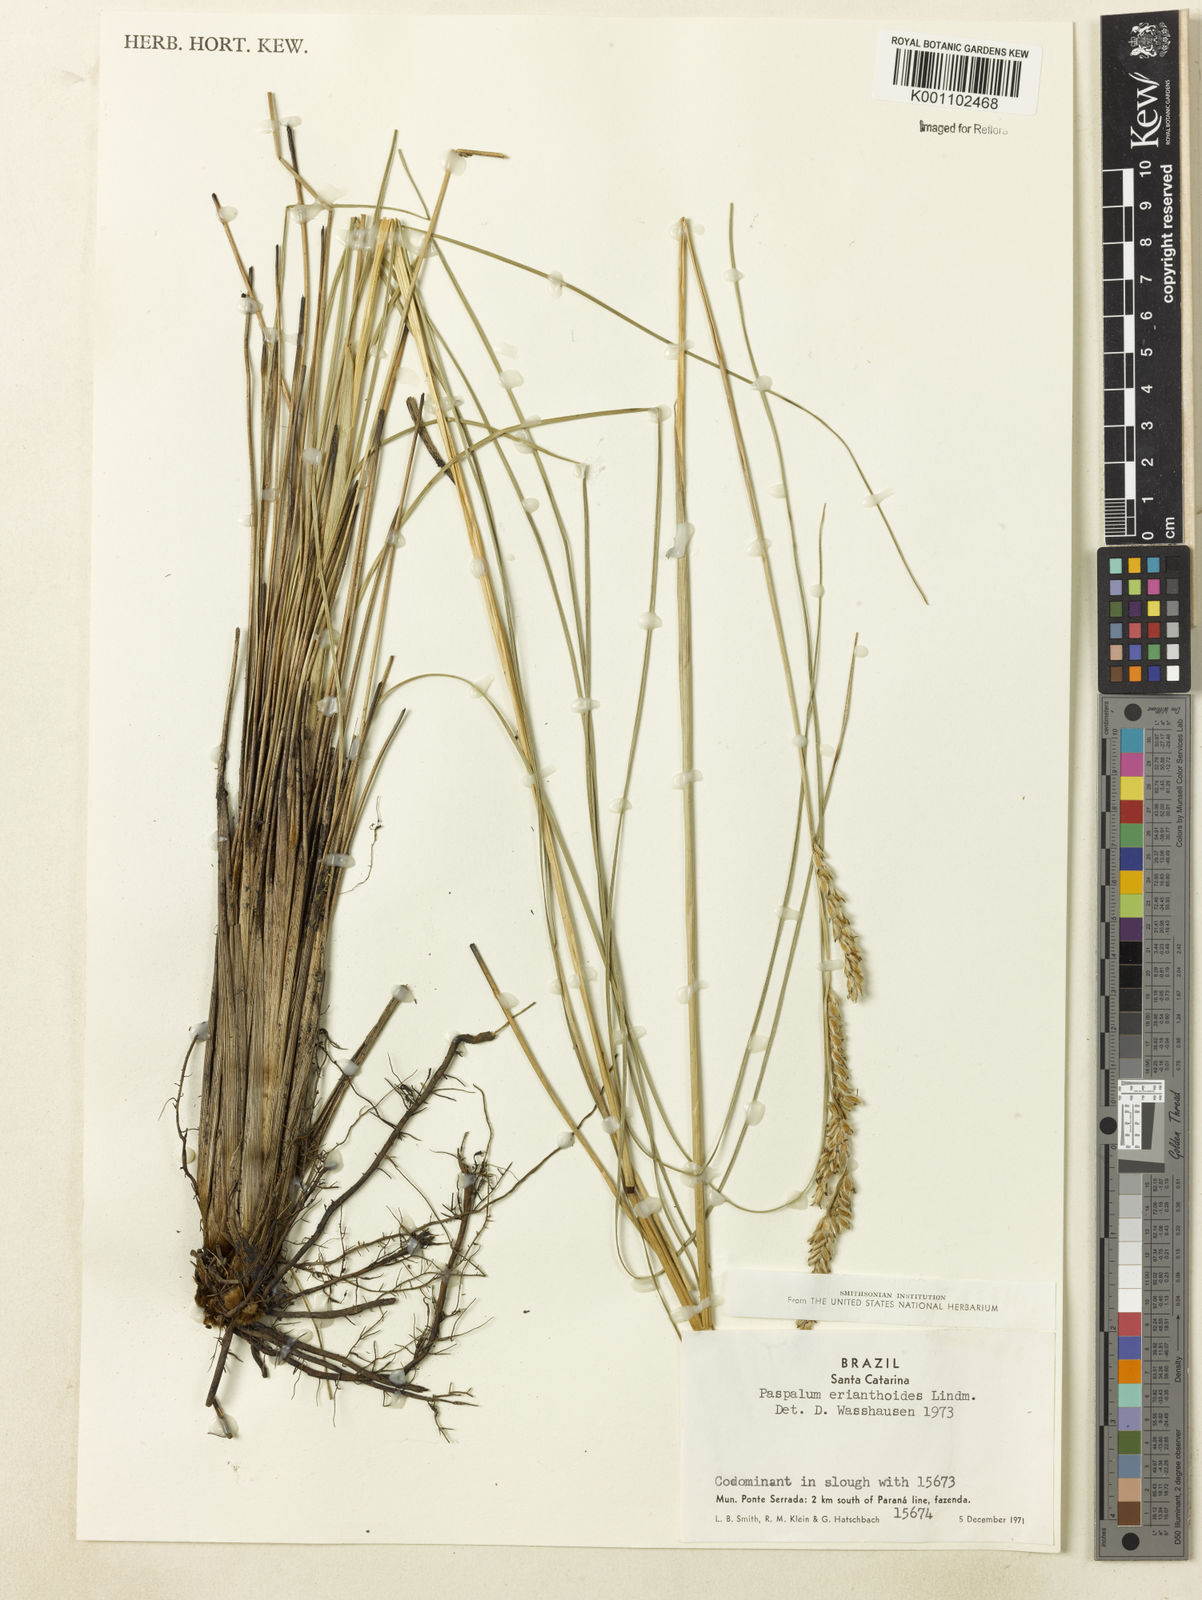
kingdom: Plantae
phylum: Tracheophyta
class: Liliopsida
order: Poales
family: Poaceae
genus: Paspalum
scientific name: Paspalum erianthoides
